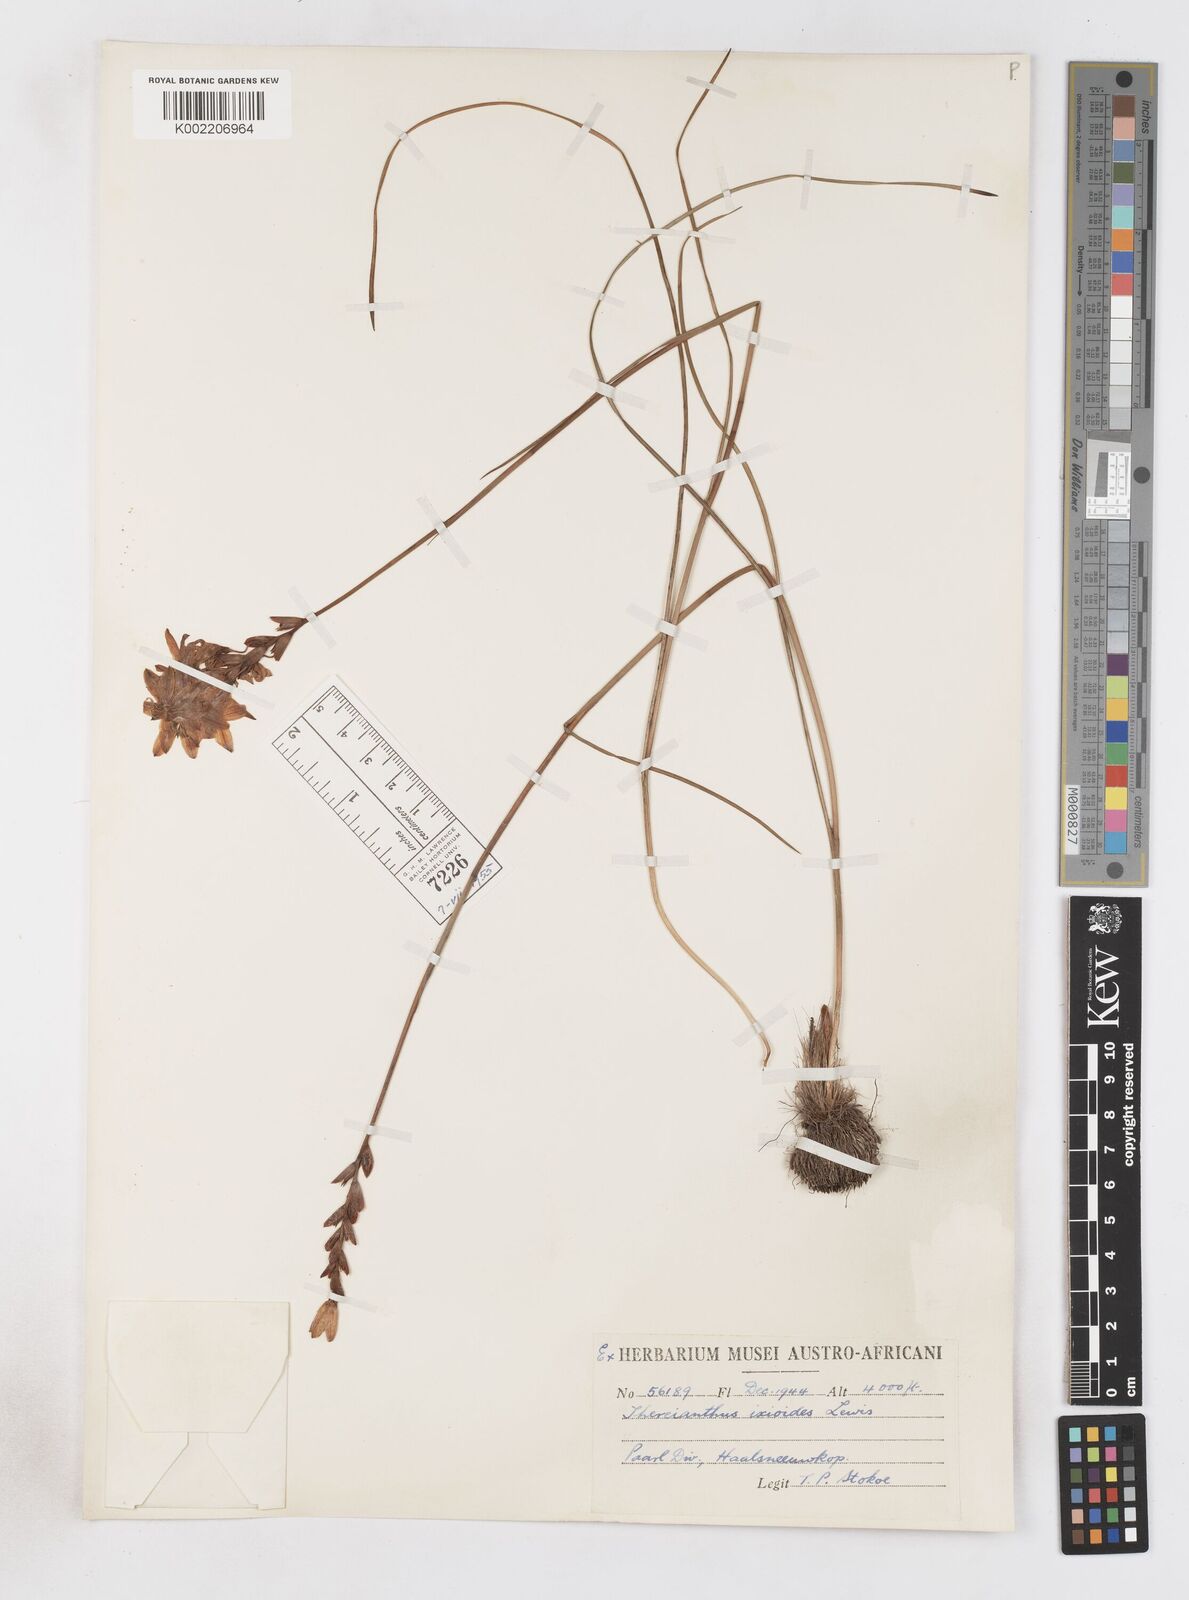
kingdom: Plantae
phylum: Tracheophyta
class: Liliopsida
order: Asparagales
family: Iridaceae
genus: Thereianthus
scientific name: Thereianthus ixioides
